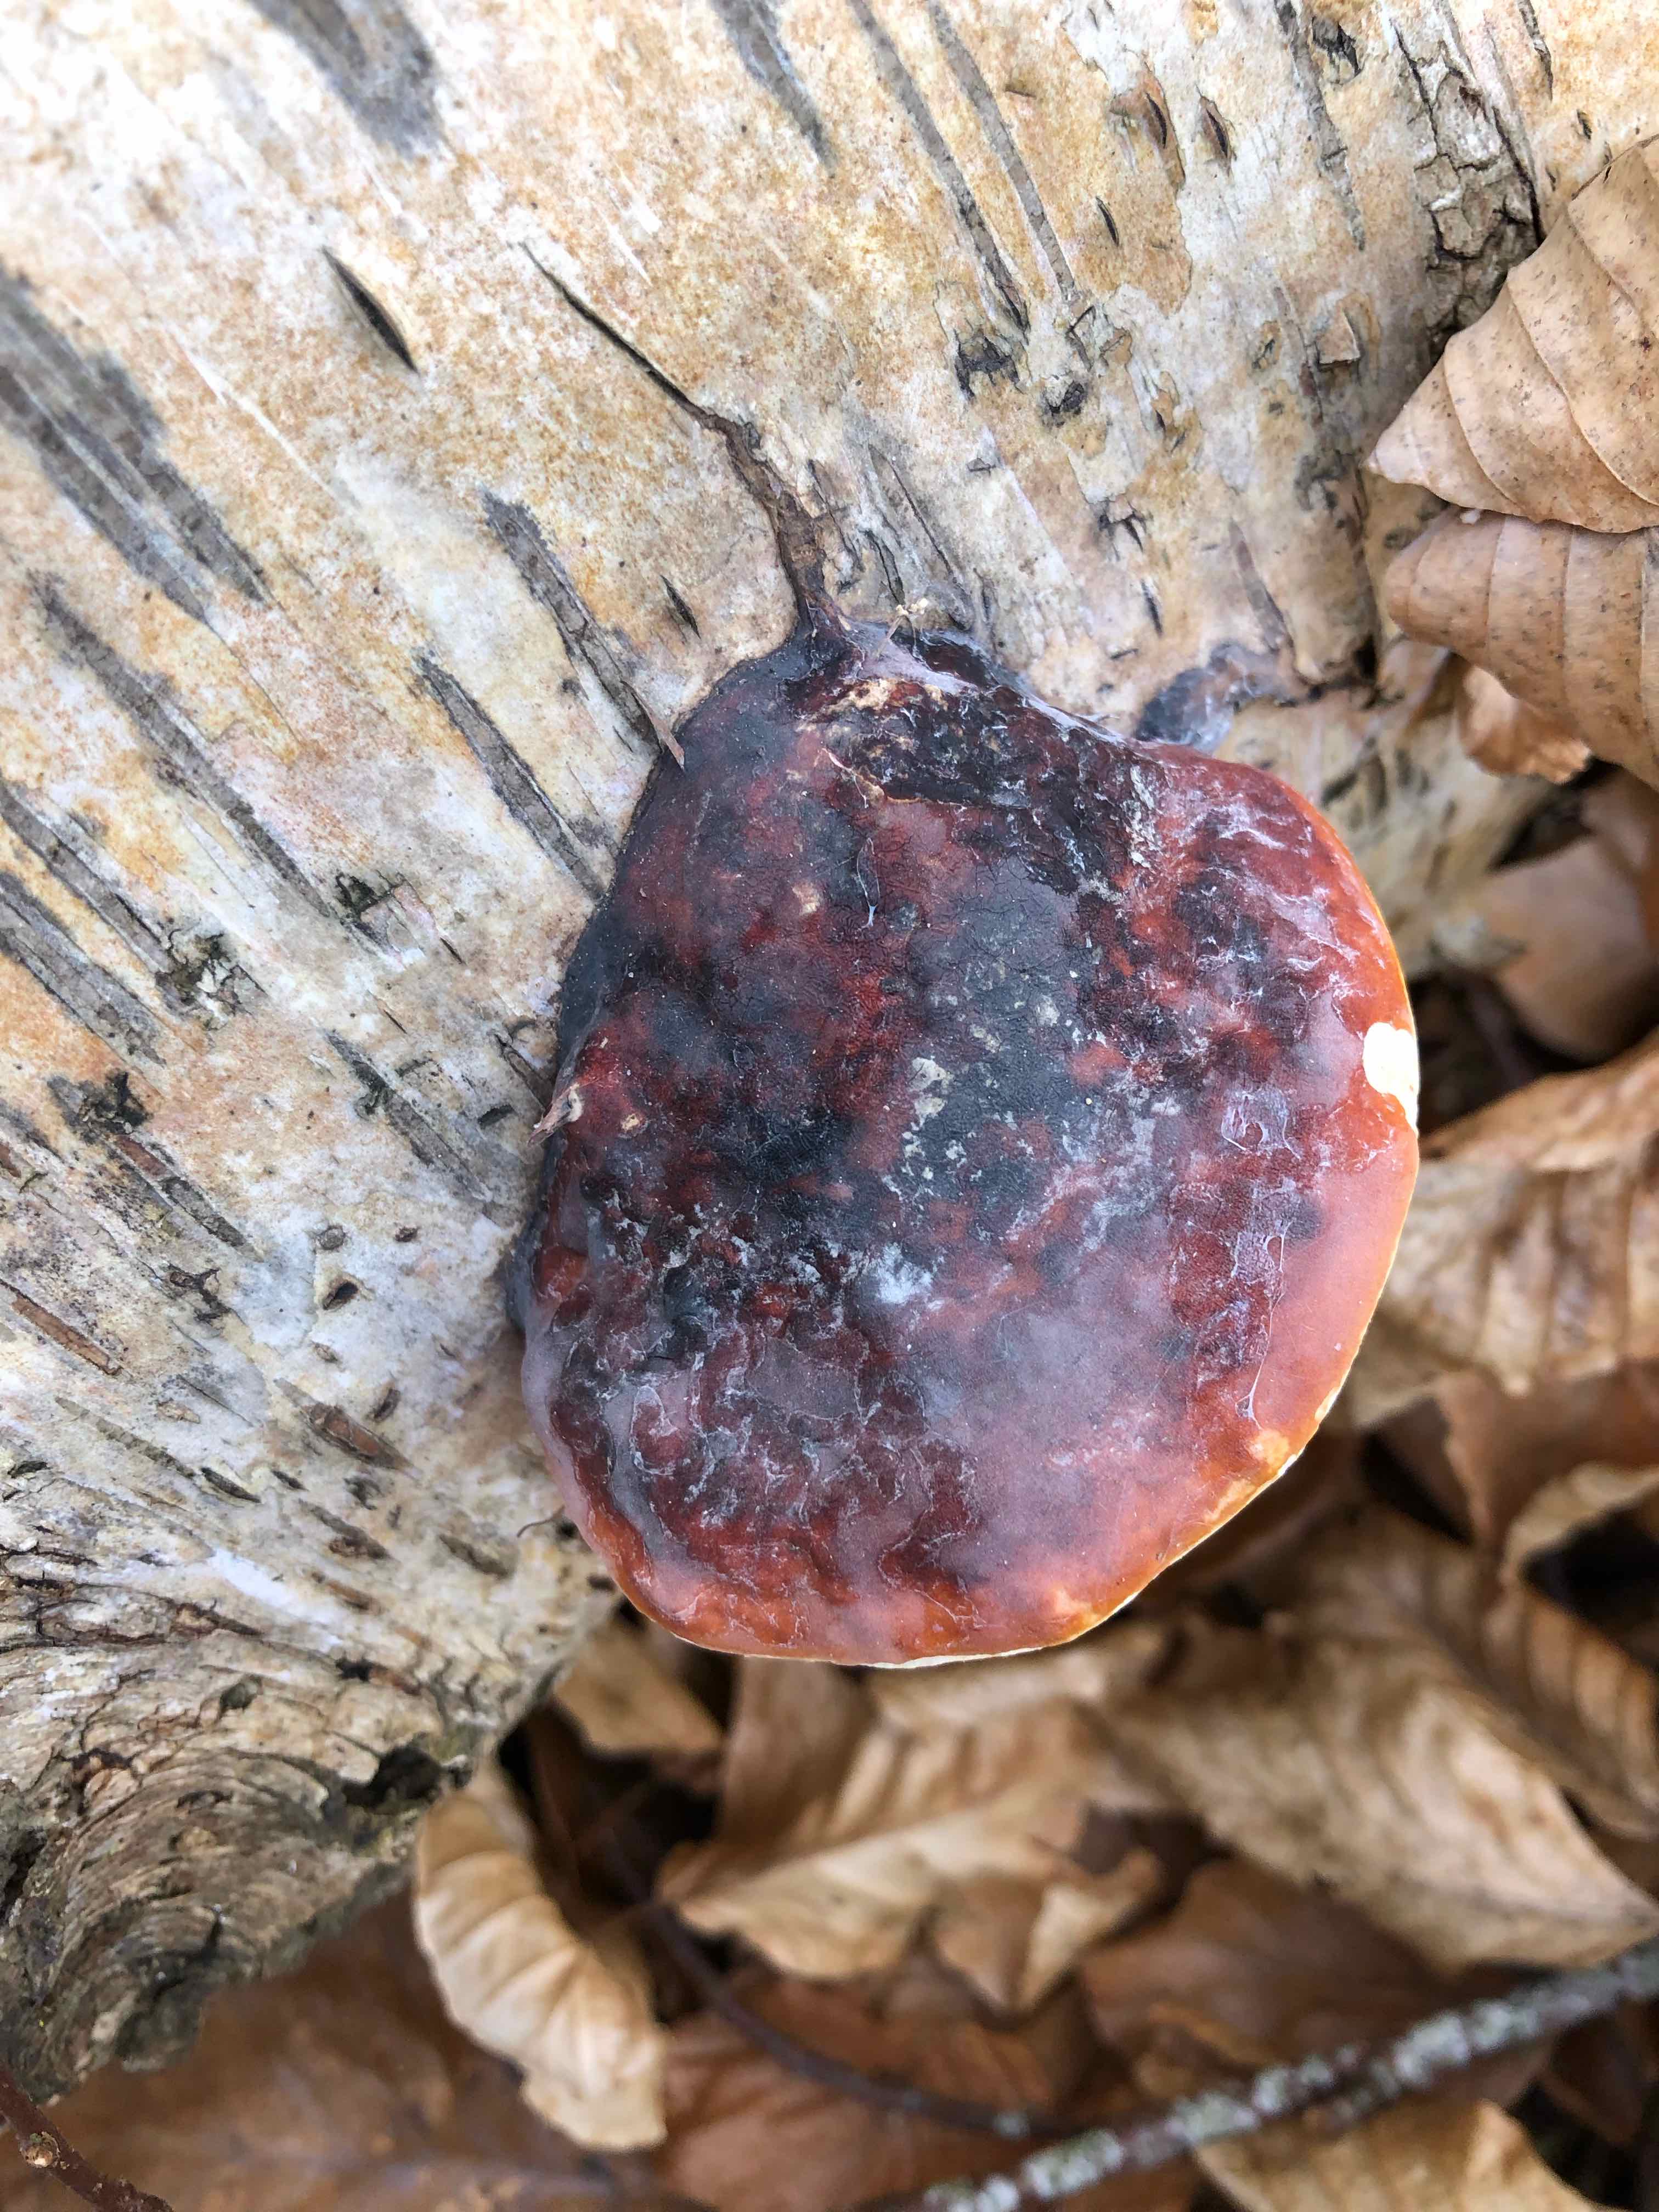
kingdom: Fungi
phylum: Basidiomycota
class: Agaricomycetes
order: Polyporales
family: Fomitopsidaceae
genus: Fomitopsis
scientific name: Fomitopsis pinicola
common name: randbæltet hovporesvamp
